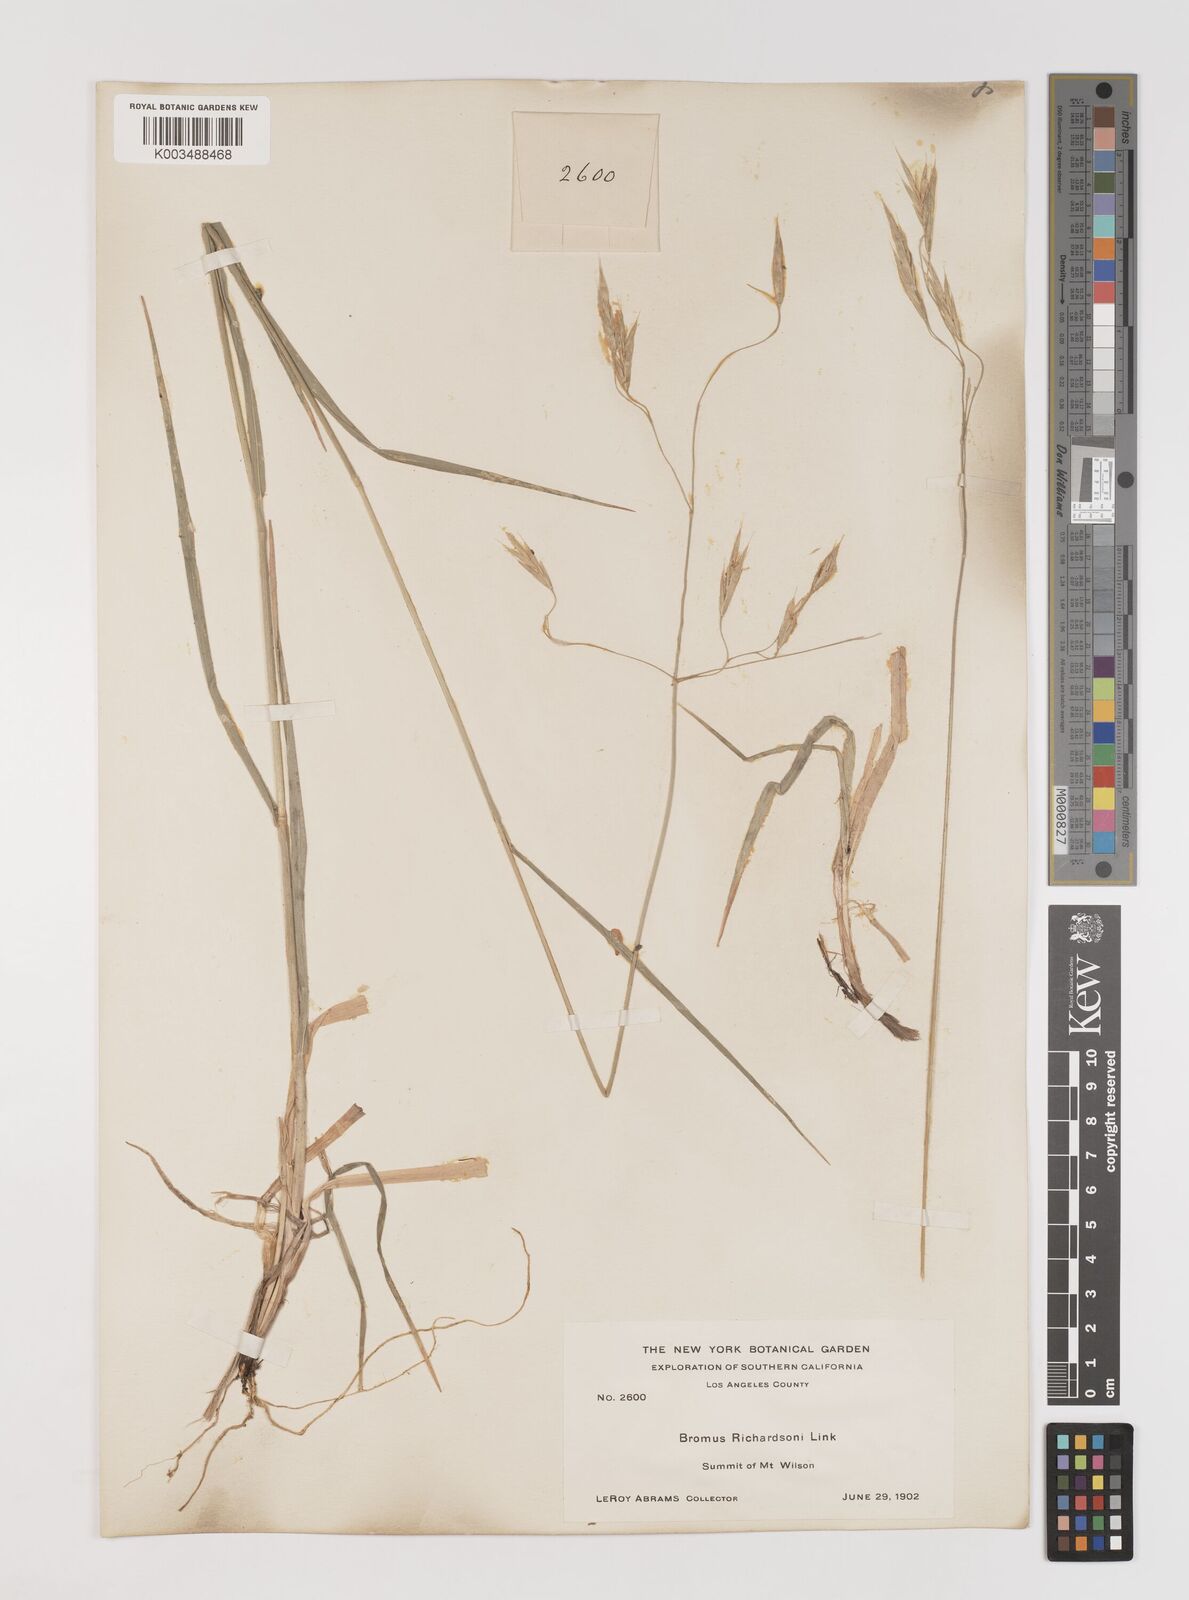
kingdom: Plantae
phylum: Tracheophyta
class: Liliopsida
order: Poales
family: Poaceae
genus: Bromus
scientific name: Bromus richardsonii
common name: Richardson's brome
